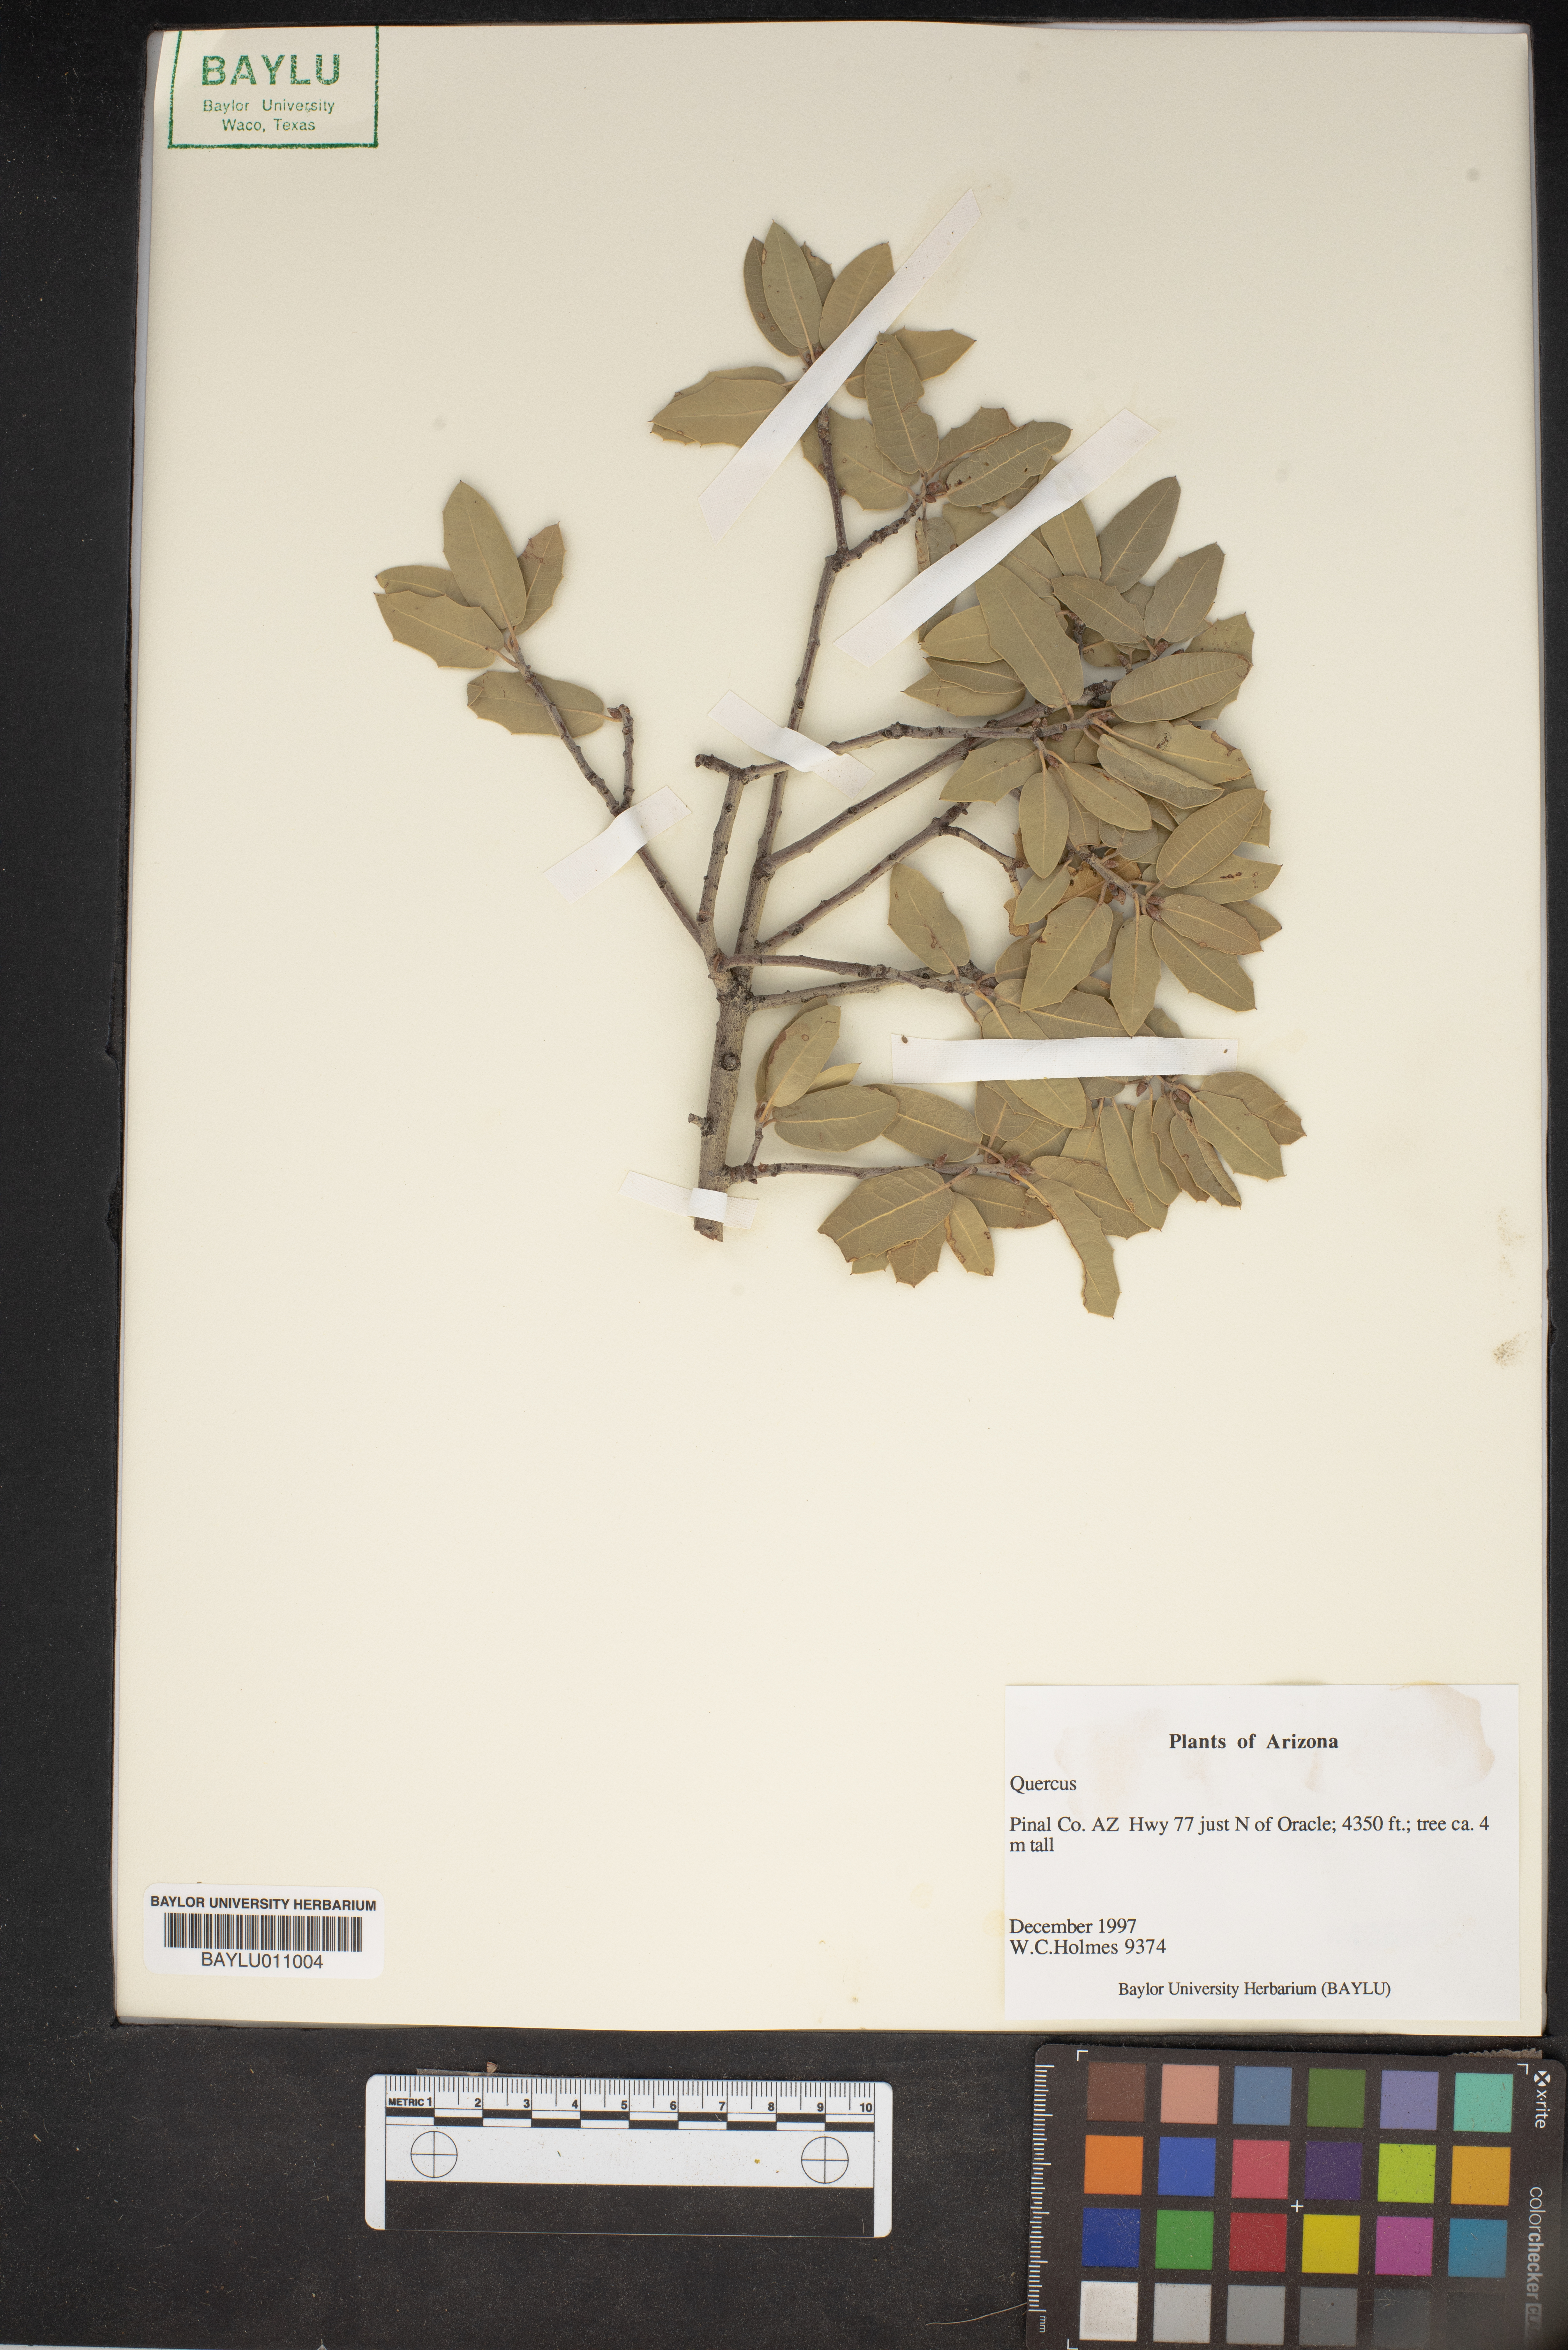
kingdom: Plantae
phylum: Tracheophyta
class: Magnoliopsida
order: Fagales
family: Fagaceae
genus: Quercus
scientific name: Quercus
